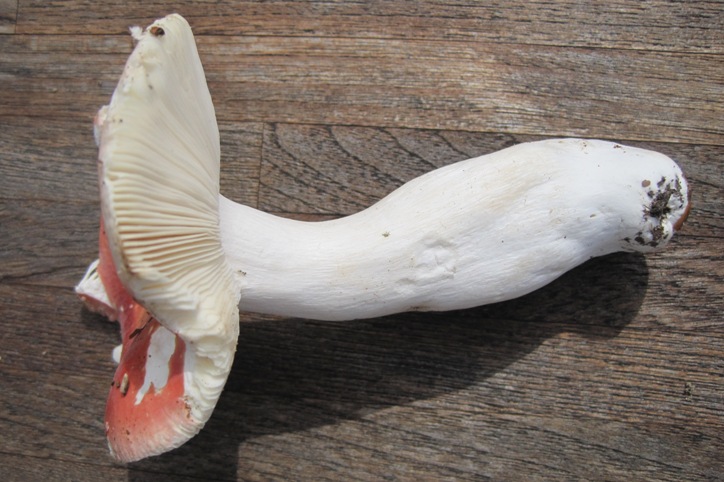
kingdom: Fungi
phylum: Basidiomycota
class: Agaricomycetes
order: Russulales
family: Russulaceae
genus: Russula
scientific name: Russula aurora
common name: rosa skørhat
